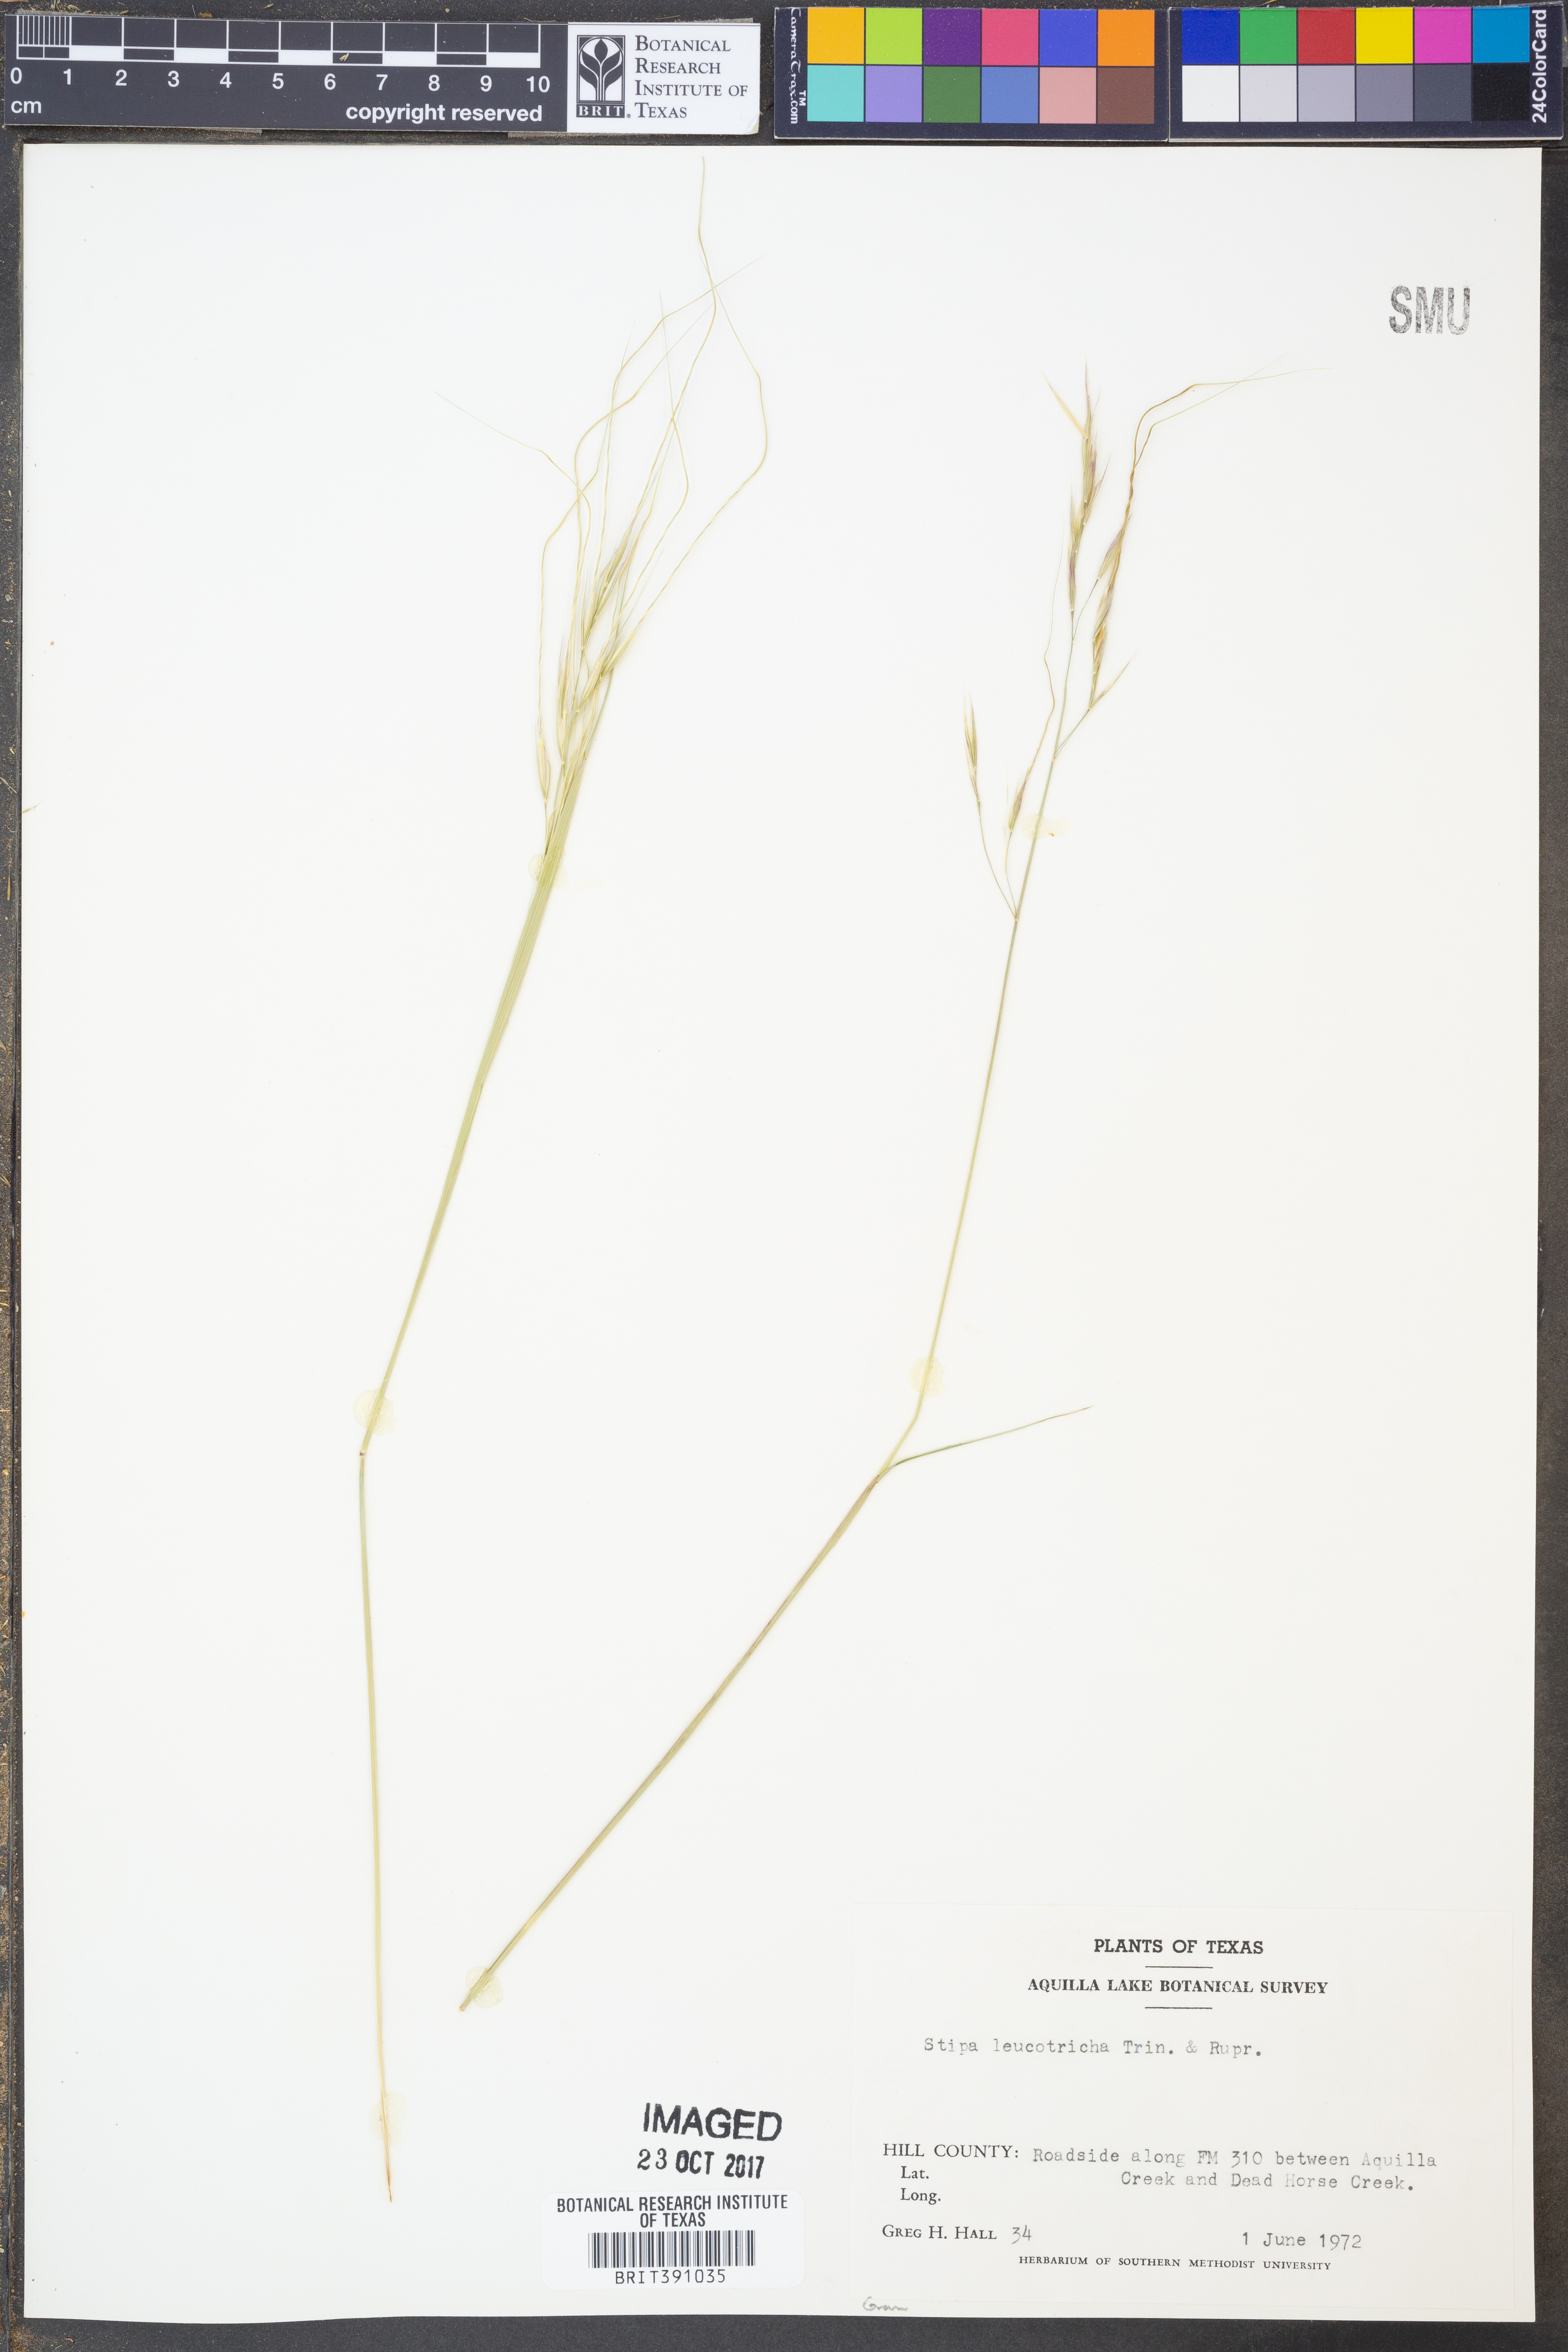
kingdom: Plantae
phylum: Tracheophyta
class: Liliopsida
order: Poales
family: Poaceae
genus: Nassella
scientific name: Nassella leucotricha
